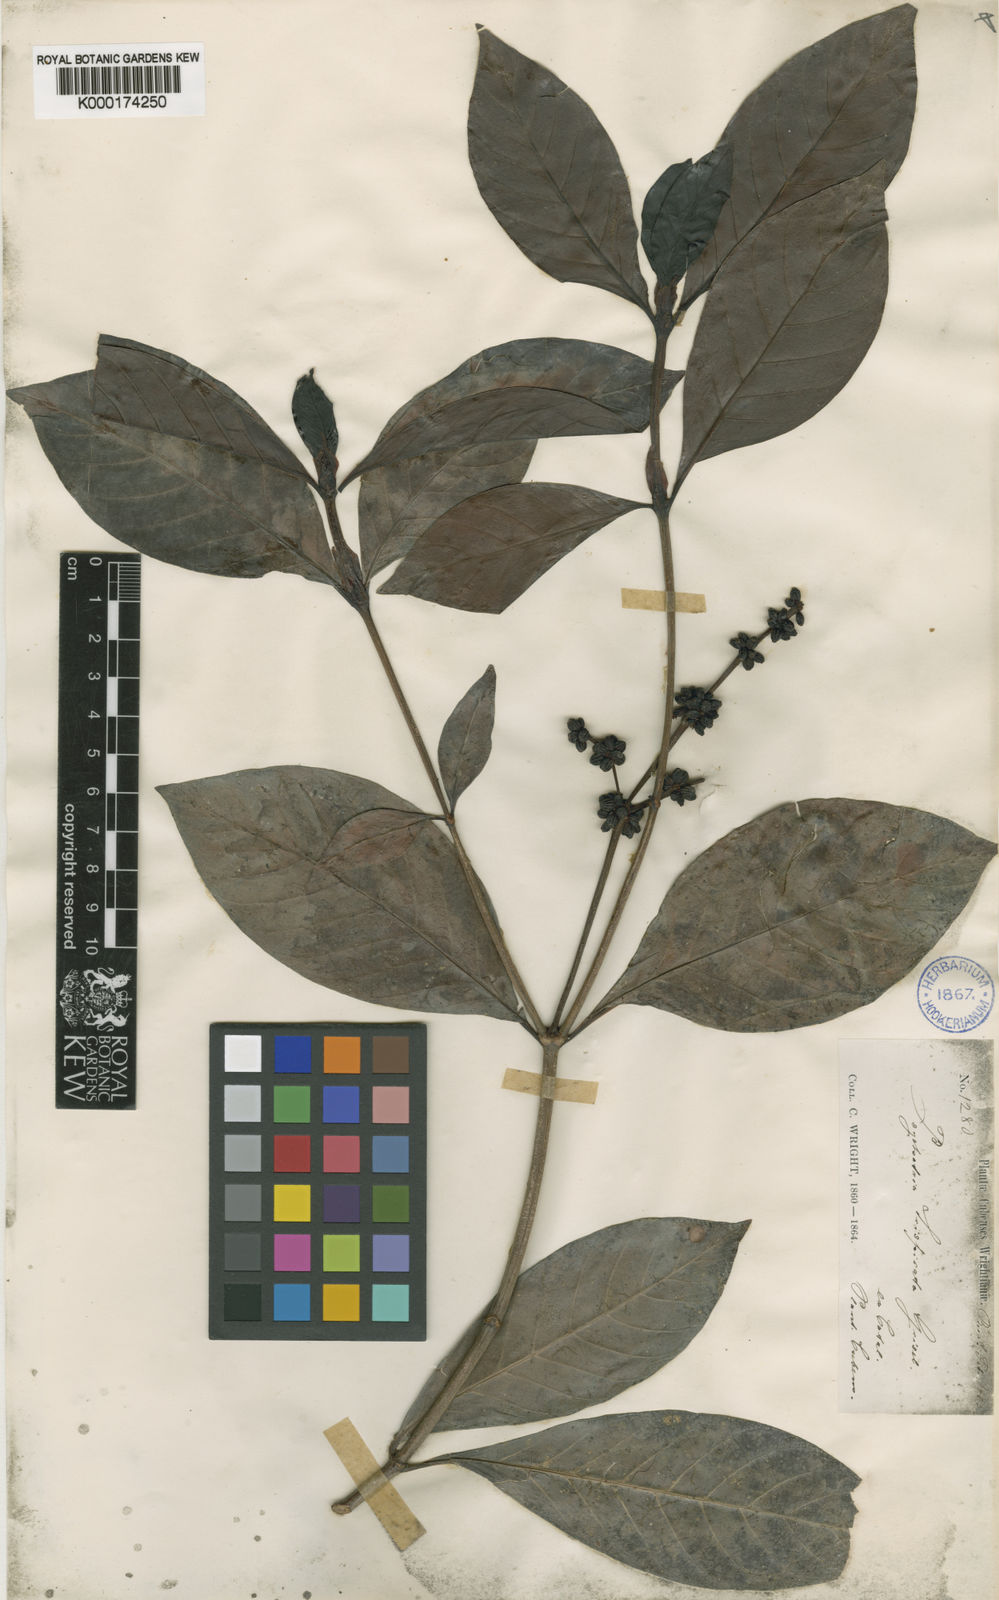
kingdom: Plantae
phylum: Tracheophyta
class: Magnoliopsida
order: Gentianales
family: Rubiaceae
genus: Psychotria
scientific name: Psychotria viridis
